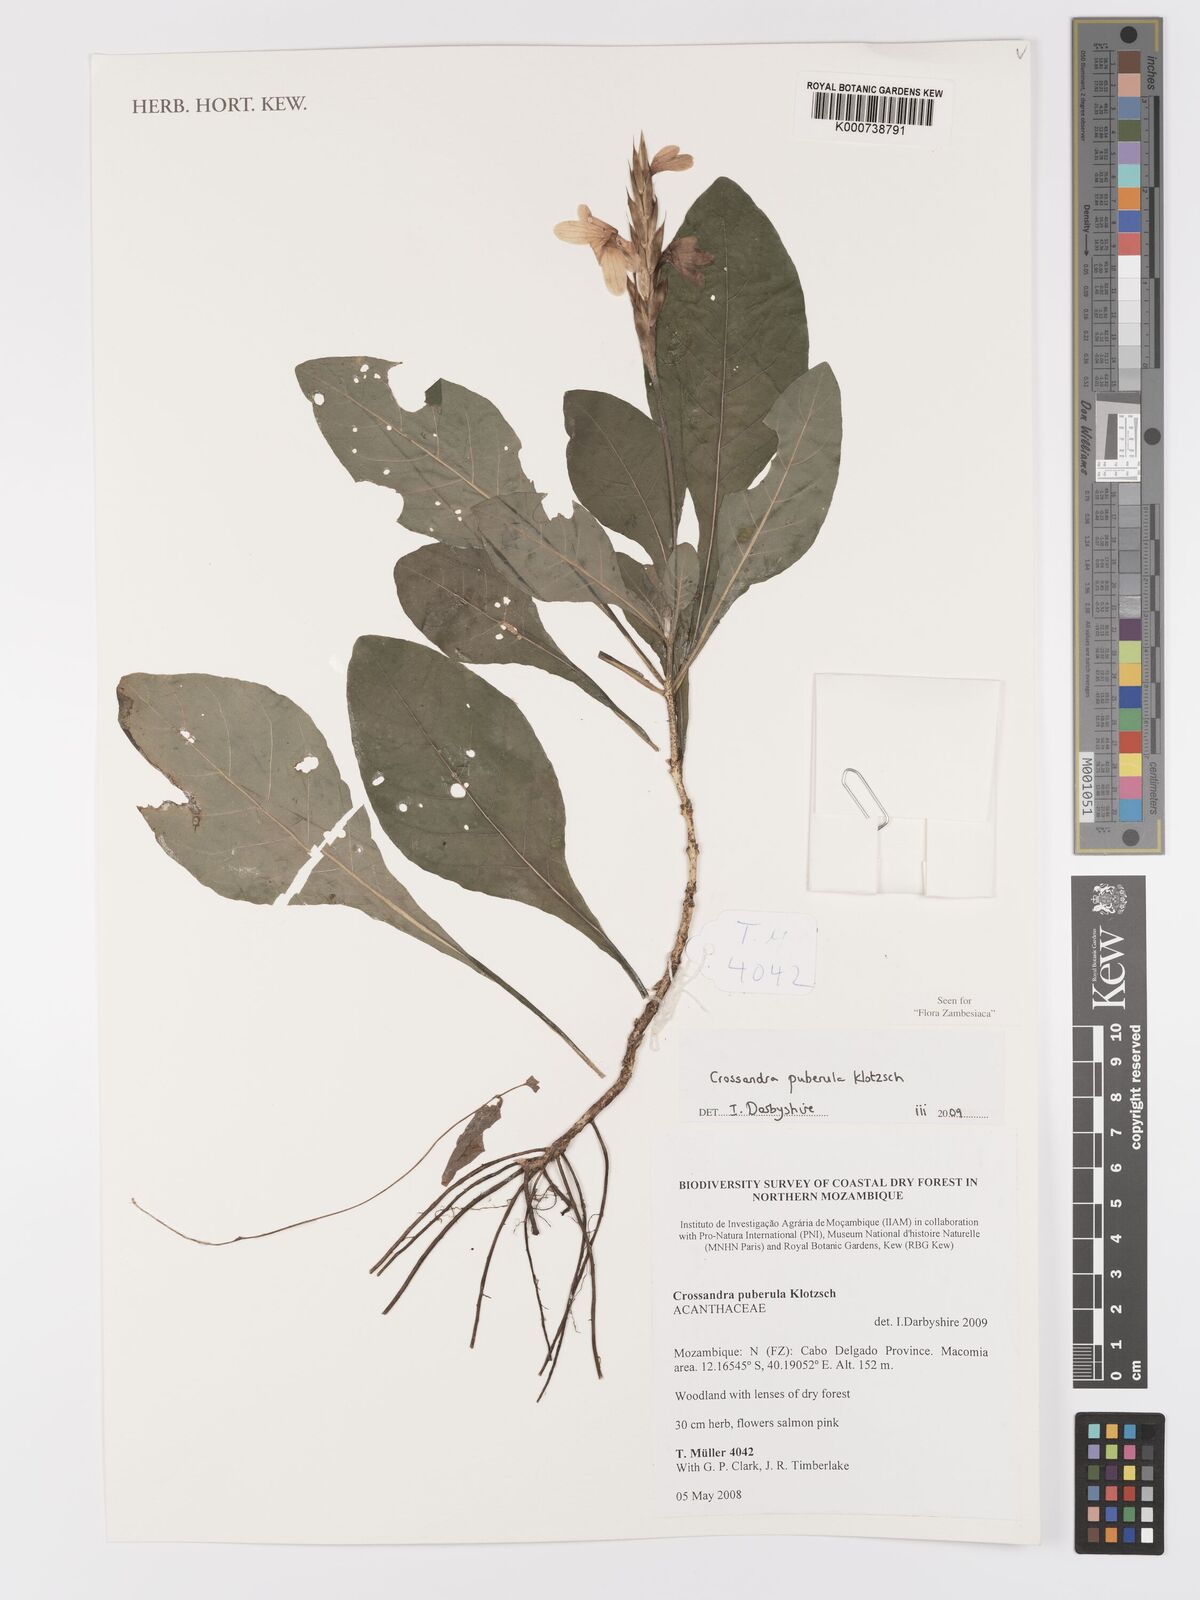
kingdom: Plantae
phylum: Tracheophyta
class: Magnoliopsida
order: Lamiales
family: Acanthaceae
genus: Crossandra
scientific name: Crossandra puberula
